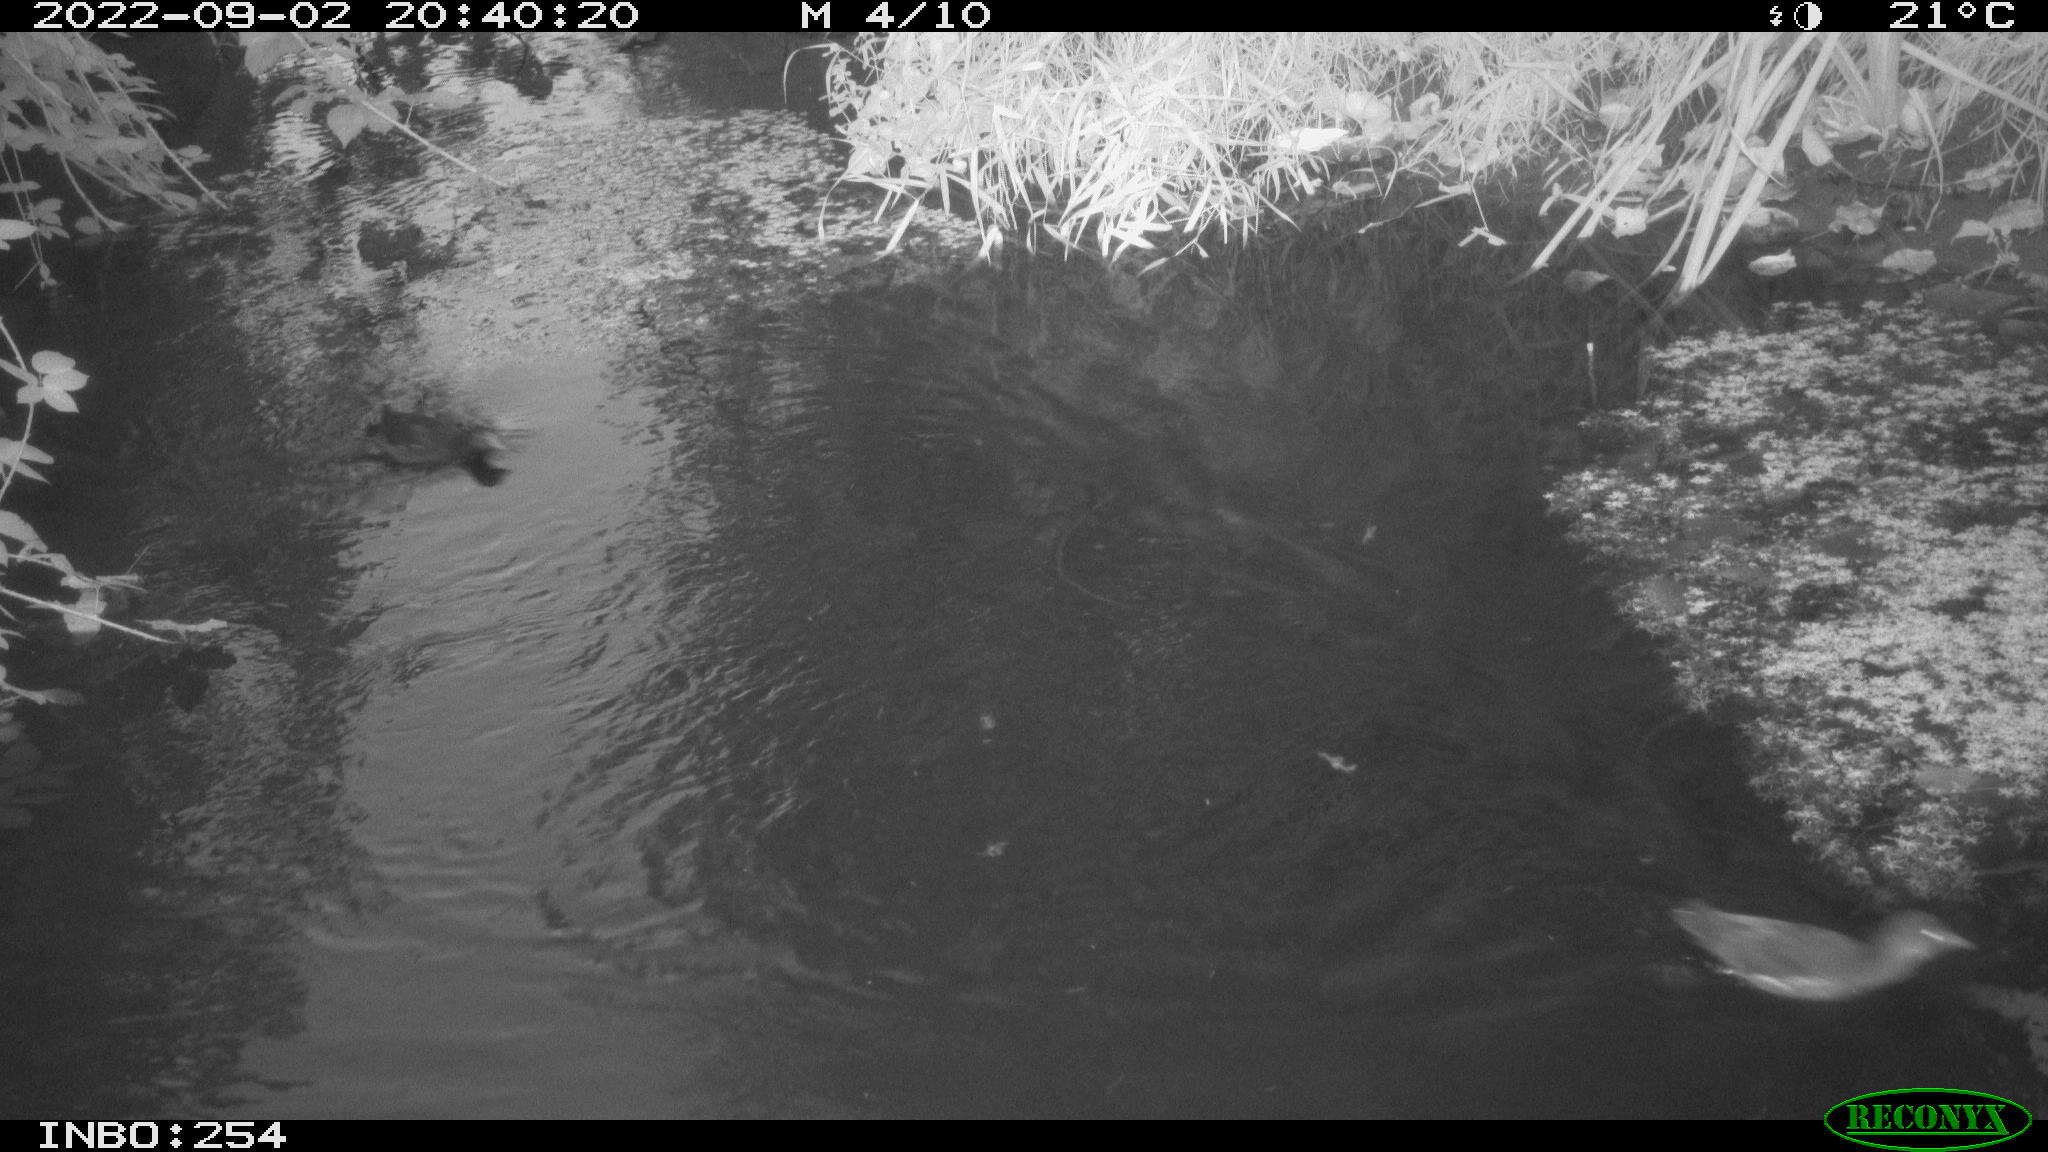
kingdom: Animalia
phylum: Chordata
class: Aves
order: Gruiformes
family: Rallidae
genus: Gallinula
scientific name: Gallinula chloropus
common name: Common moorhen
